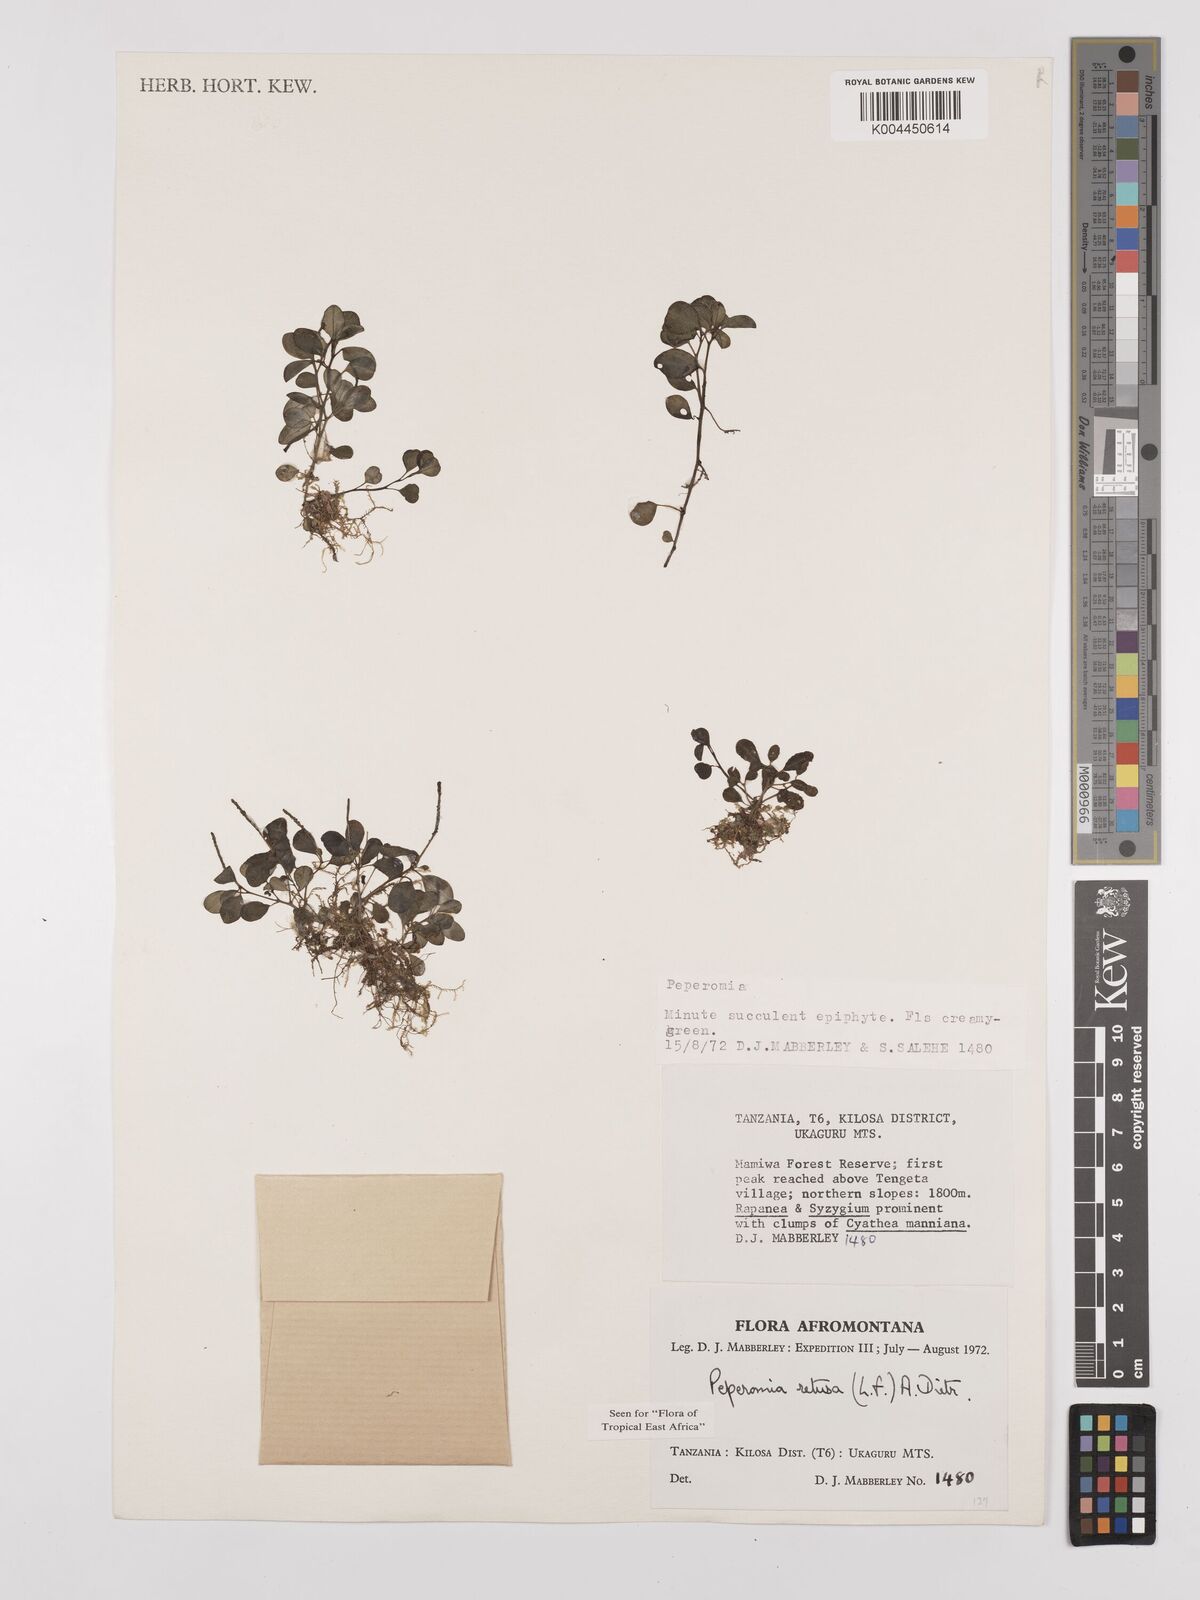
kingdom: Plantae
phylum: Tracheophyta
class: Magnoliopsida
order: Piperales
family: Piperaceae
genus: Peperomia
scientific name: Peperomia retusa
